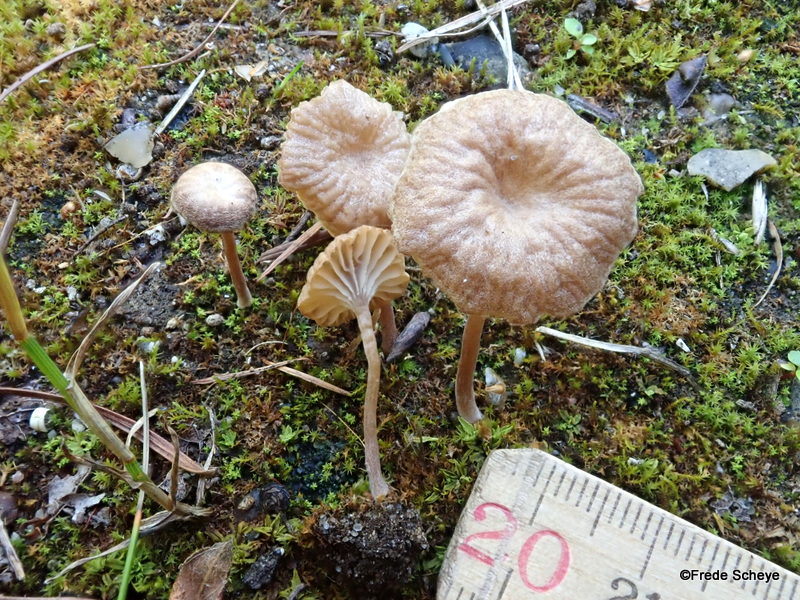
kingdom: Fungi
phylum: Basidiomycota
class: Agaricomycetes
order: Agaricales
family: Tricholomataceae
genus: Omphalina
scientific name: Omphalina pyxidata
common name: rødbrun navlehat
